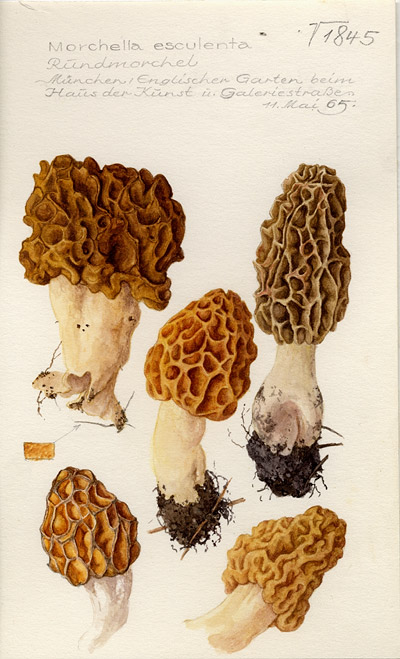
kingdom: Fungi
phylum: Ascomycota
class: Pezizomycetes
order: Pezizales
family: Morchellaceae
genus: Morchella
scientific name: Morchella esculenta
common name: Morel
